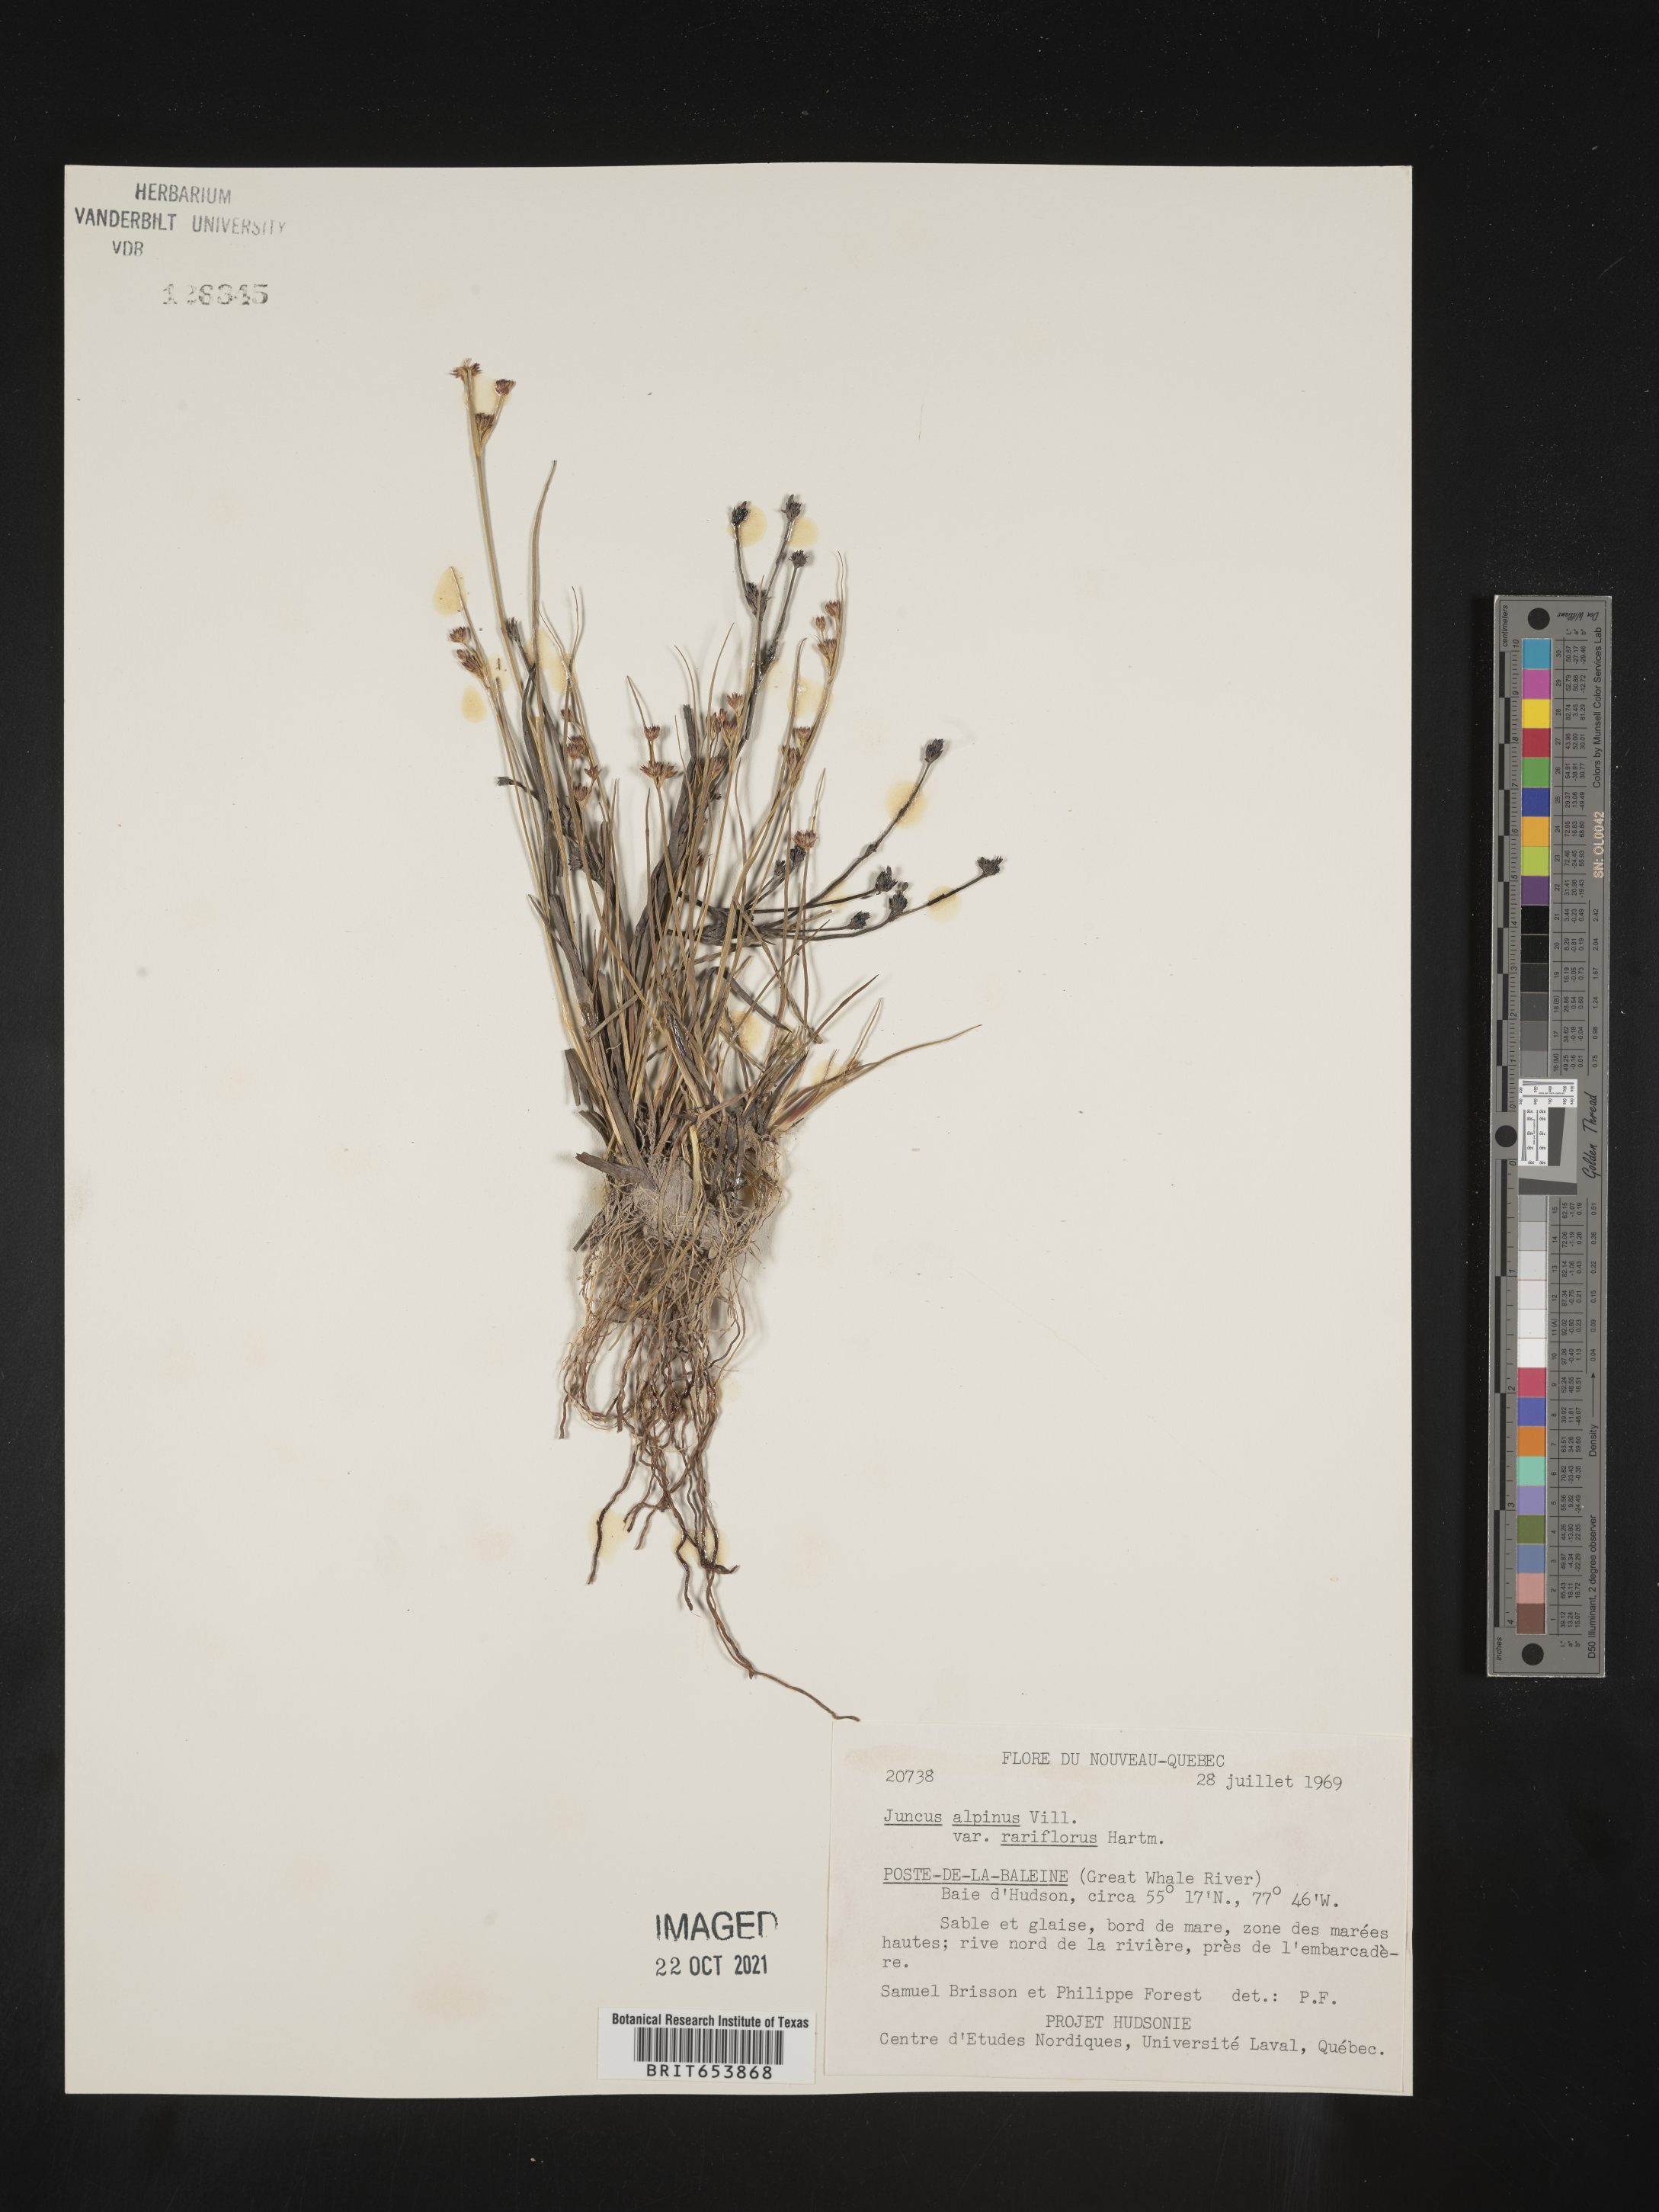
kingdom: Plantae
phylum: Tracheophyta
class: Liliopsida
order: Poales
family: Juncaceae
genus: Juncus
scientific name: Juncus alpinoarticulatus
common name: Alpine rush
